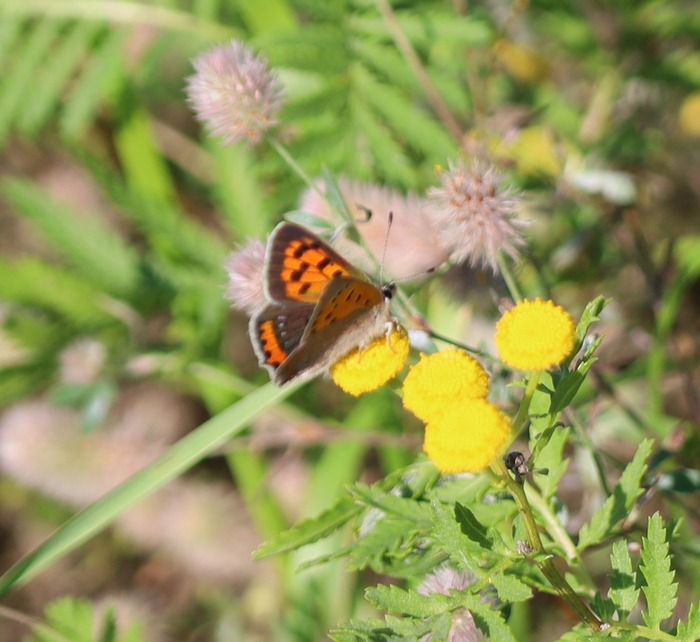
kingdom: Animalia
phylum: Arthropoda
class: Insecta
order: Lepidoptera
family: Lycaenidae
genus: Lycaena
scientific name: Lycaena phlaeas
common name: Lille ildfugl
